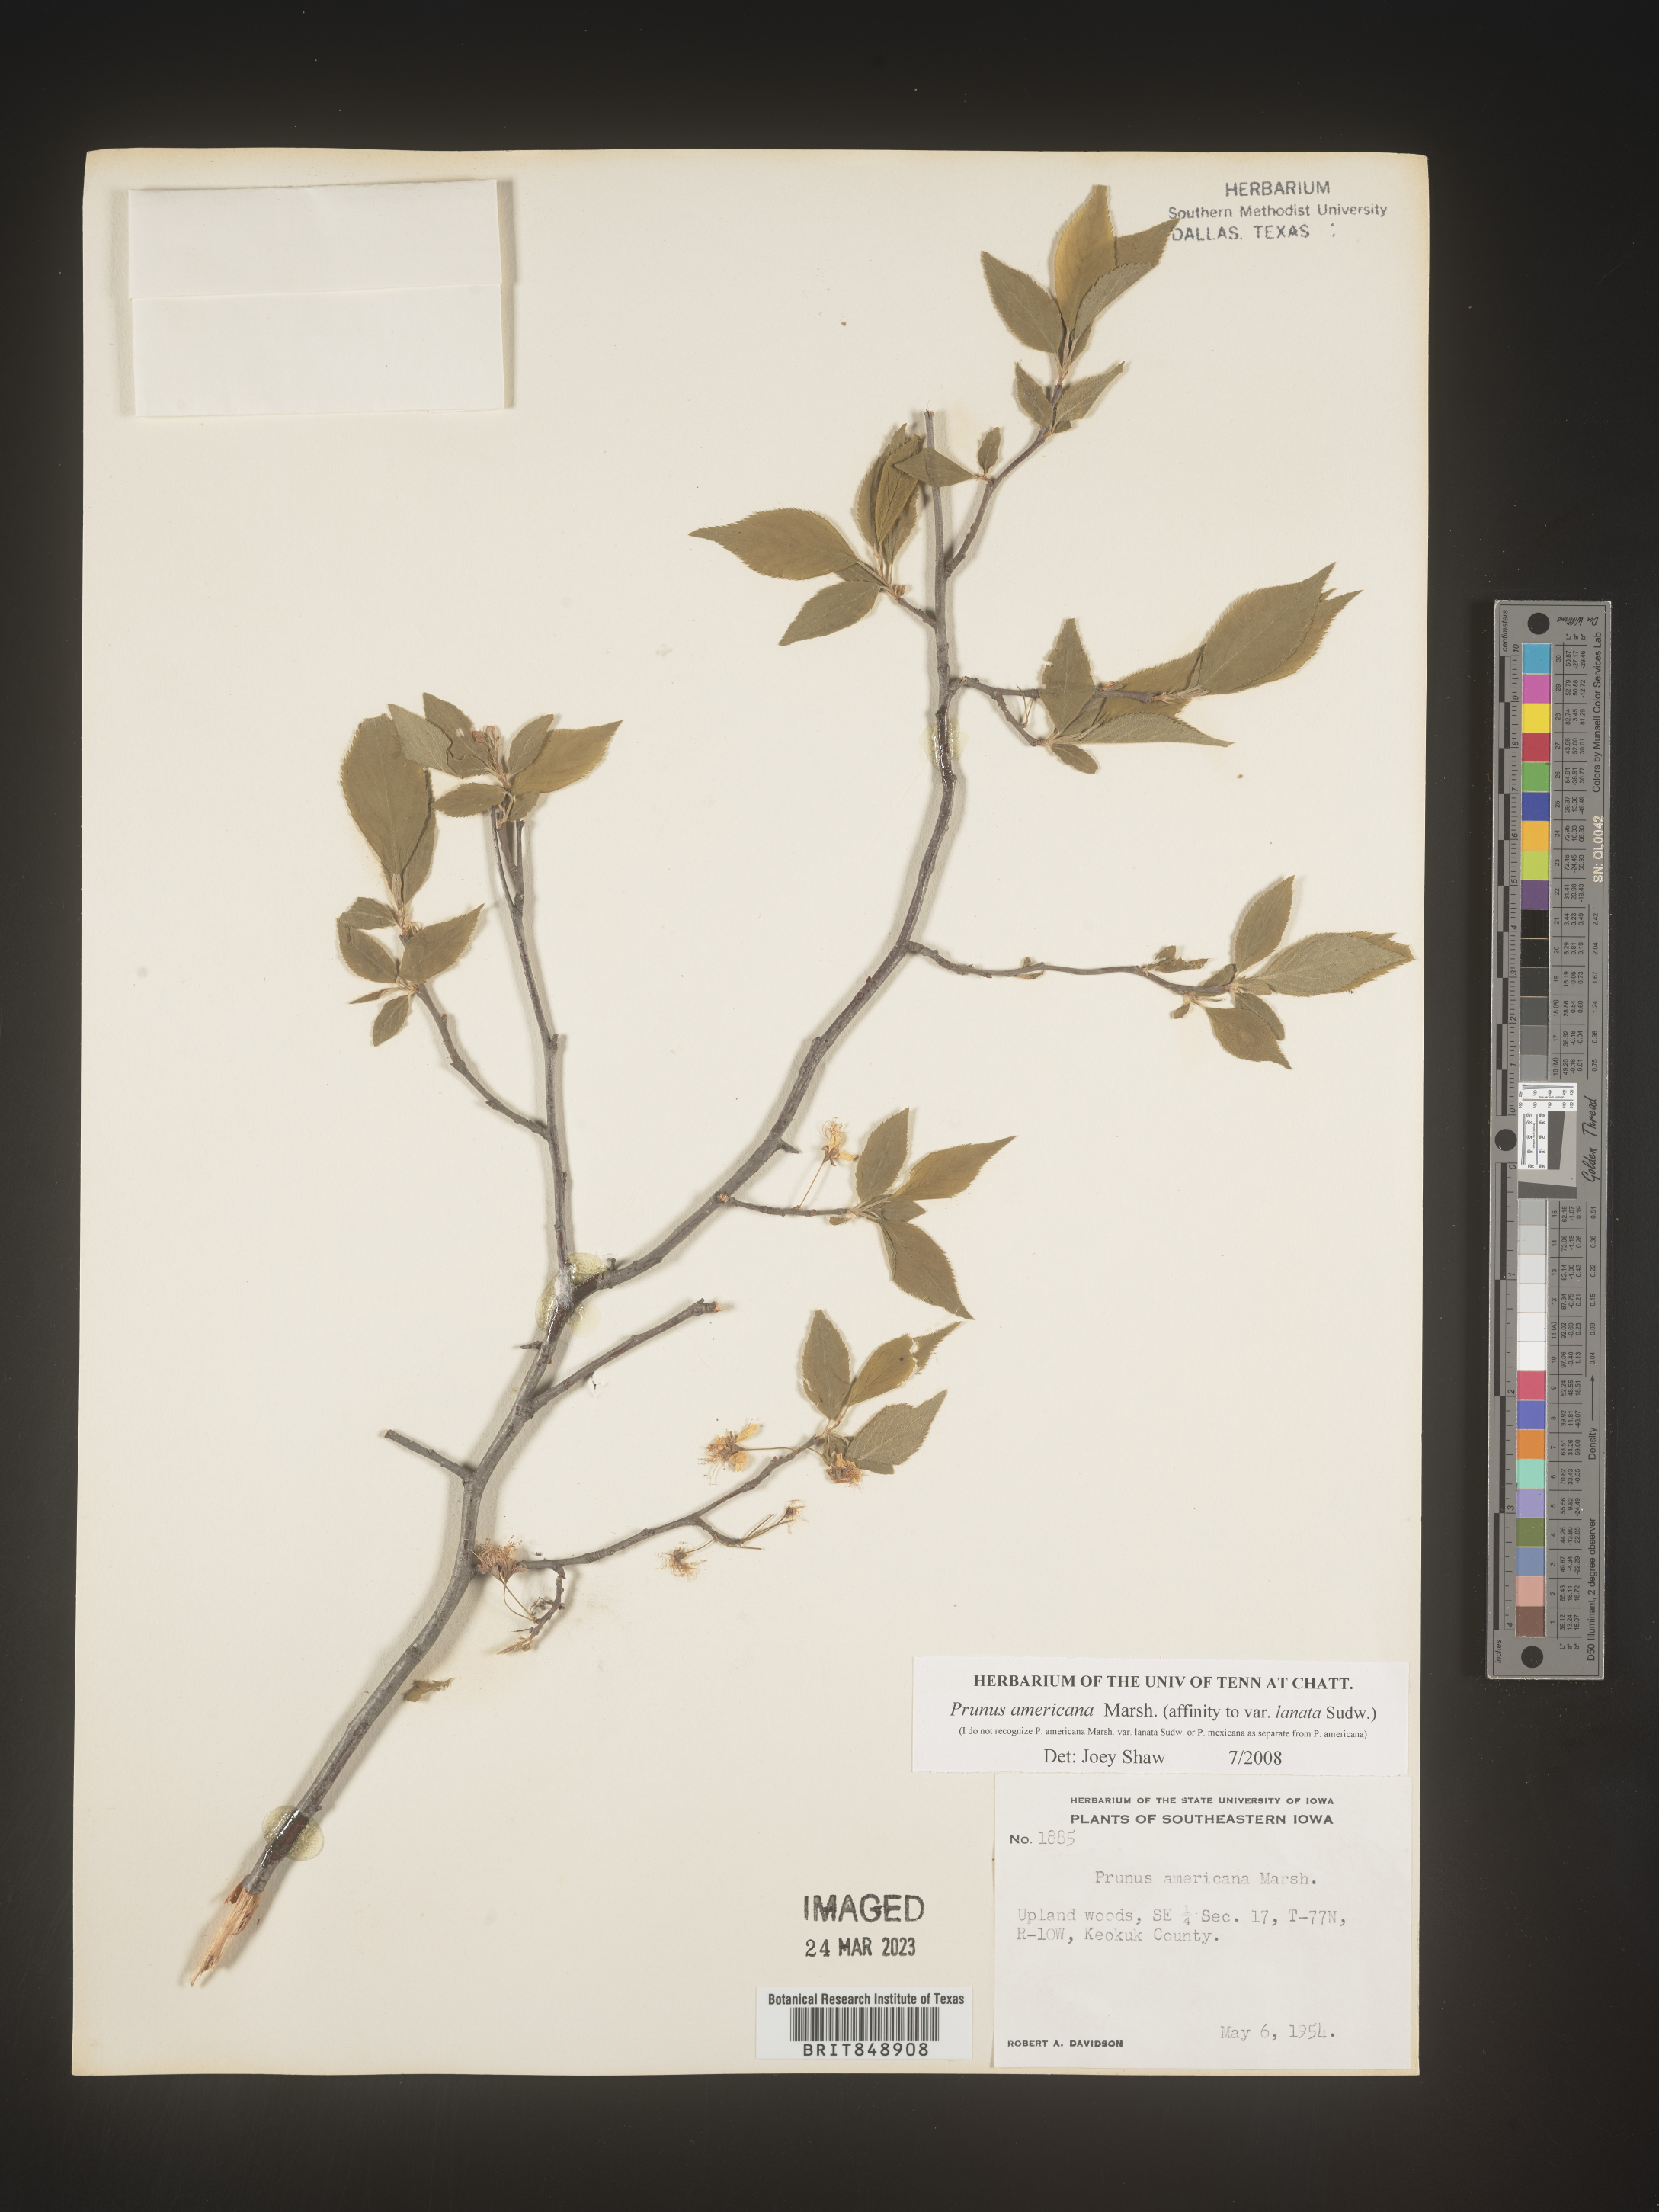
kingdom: Plantae
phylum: Tracheophyta
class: Magnoliopsida
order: Rosales
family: Rosaceae
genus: Prunus
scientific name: Prunus americana
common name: American plum
